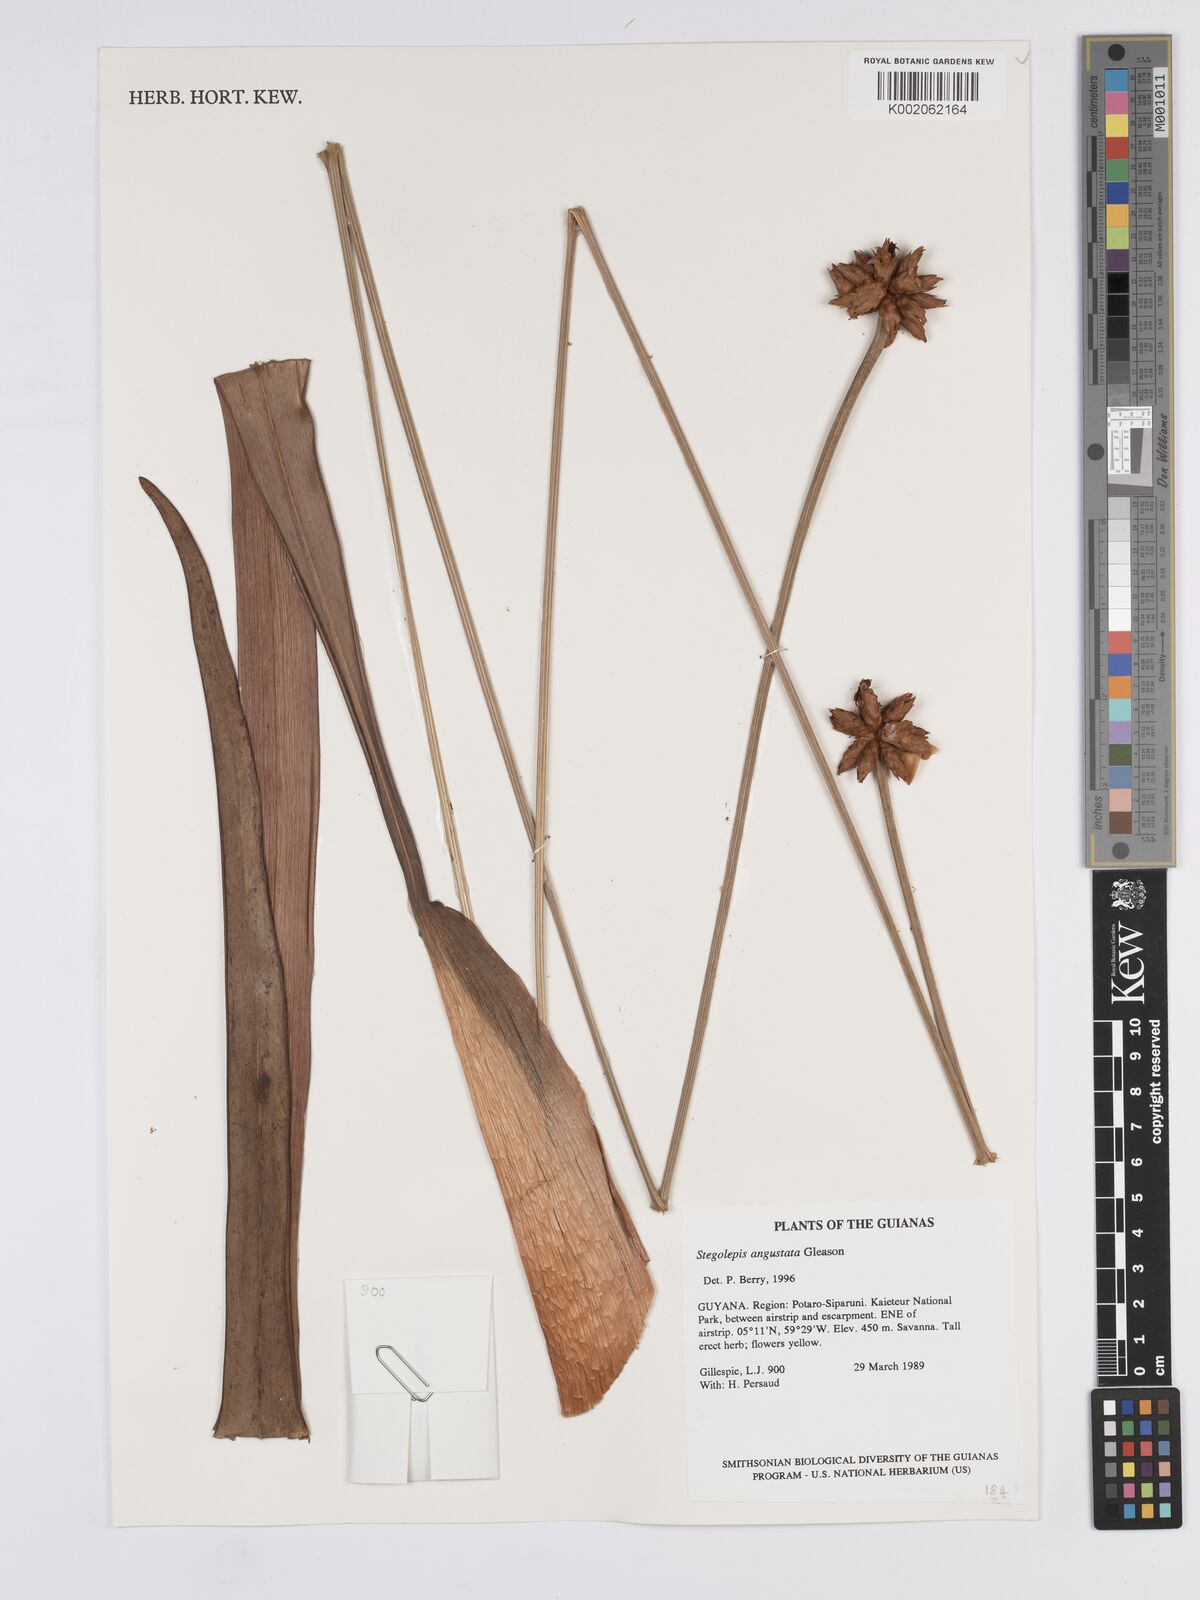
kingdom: Plantae
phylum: Tracheophyta
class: Liliopsida
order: Poales
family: Rapateaceae
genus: Stegolepis
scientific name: Stegolepis angustata
